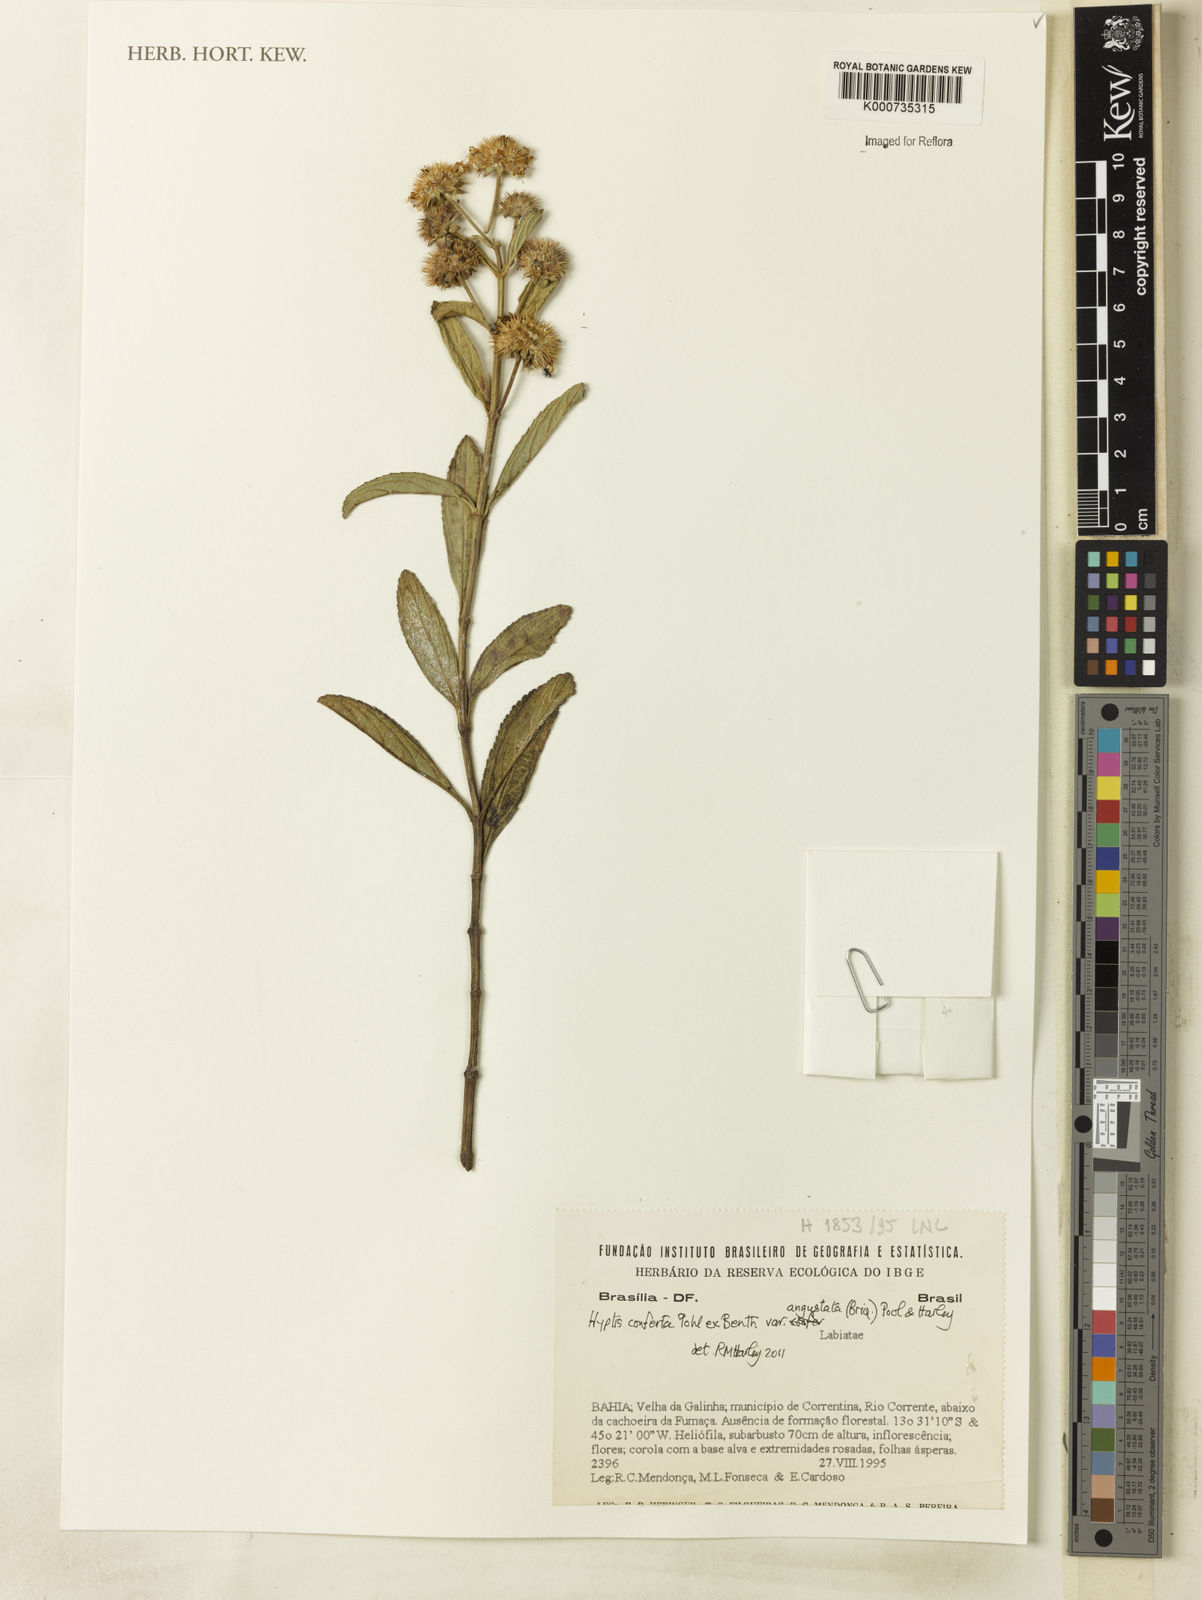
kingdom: Plantae
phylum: Tracheophyta
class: Magnoliopsida
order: Lamiales
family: Lamiaceae
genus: Hyptis
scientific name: Hyptis conferta
